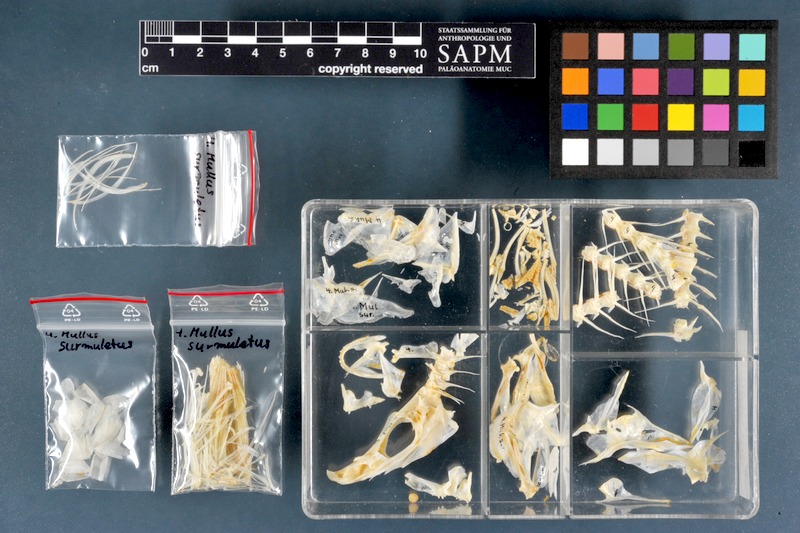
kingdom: Animalia
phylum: Chordata
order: Perciformes
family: Mullidae
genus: Mullus
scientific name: Mullus surmuletus
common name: Red mullet
